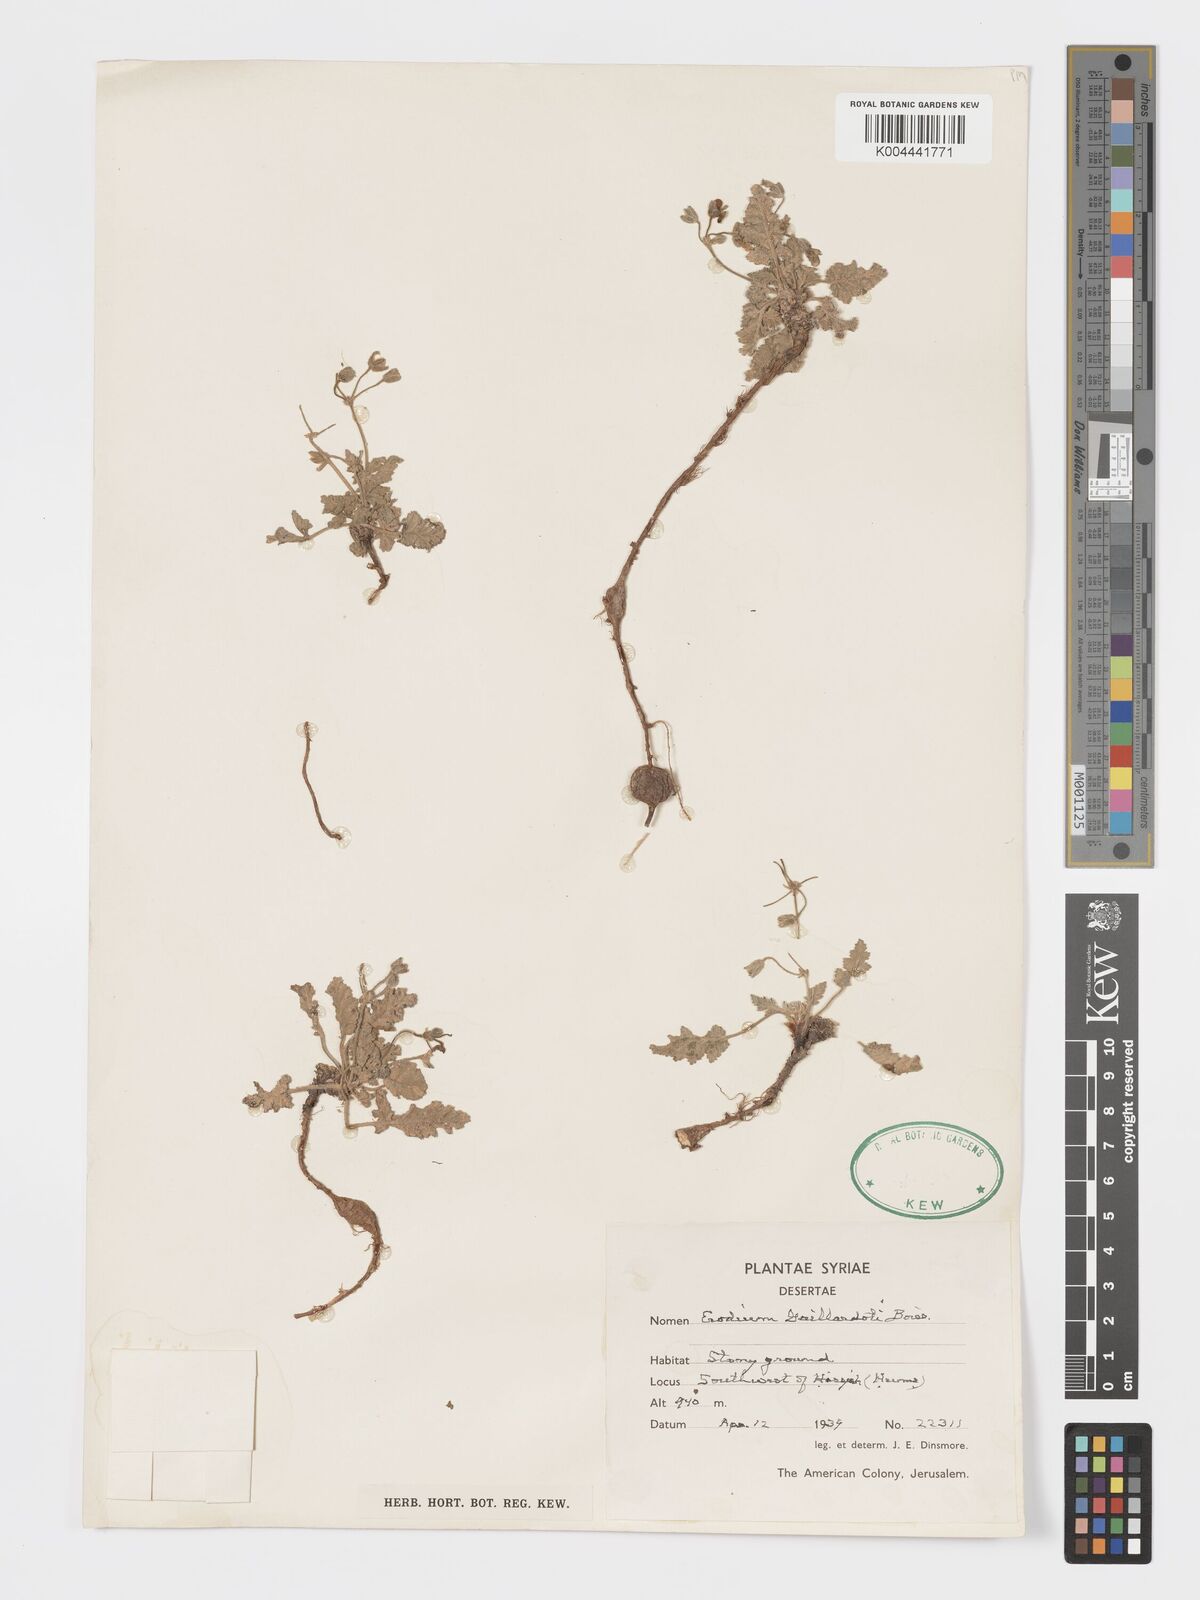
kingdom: Plantae
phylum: Tracheophyta
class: Magnoliopsida
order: Geraniales
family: Geraniaceae
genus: Erodium
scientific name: Erodium gaillardotii
